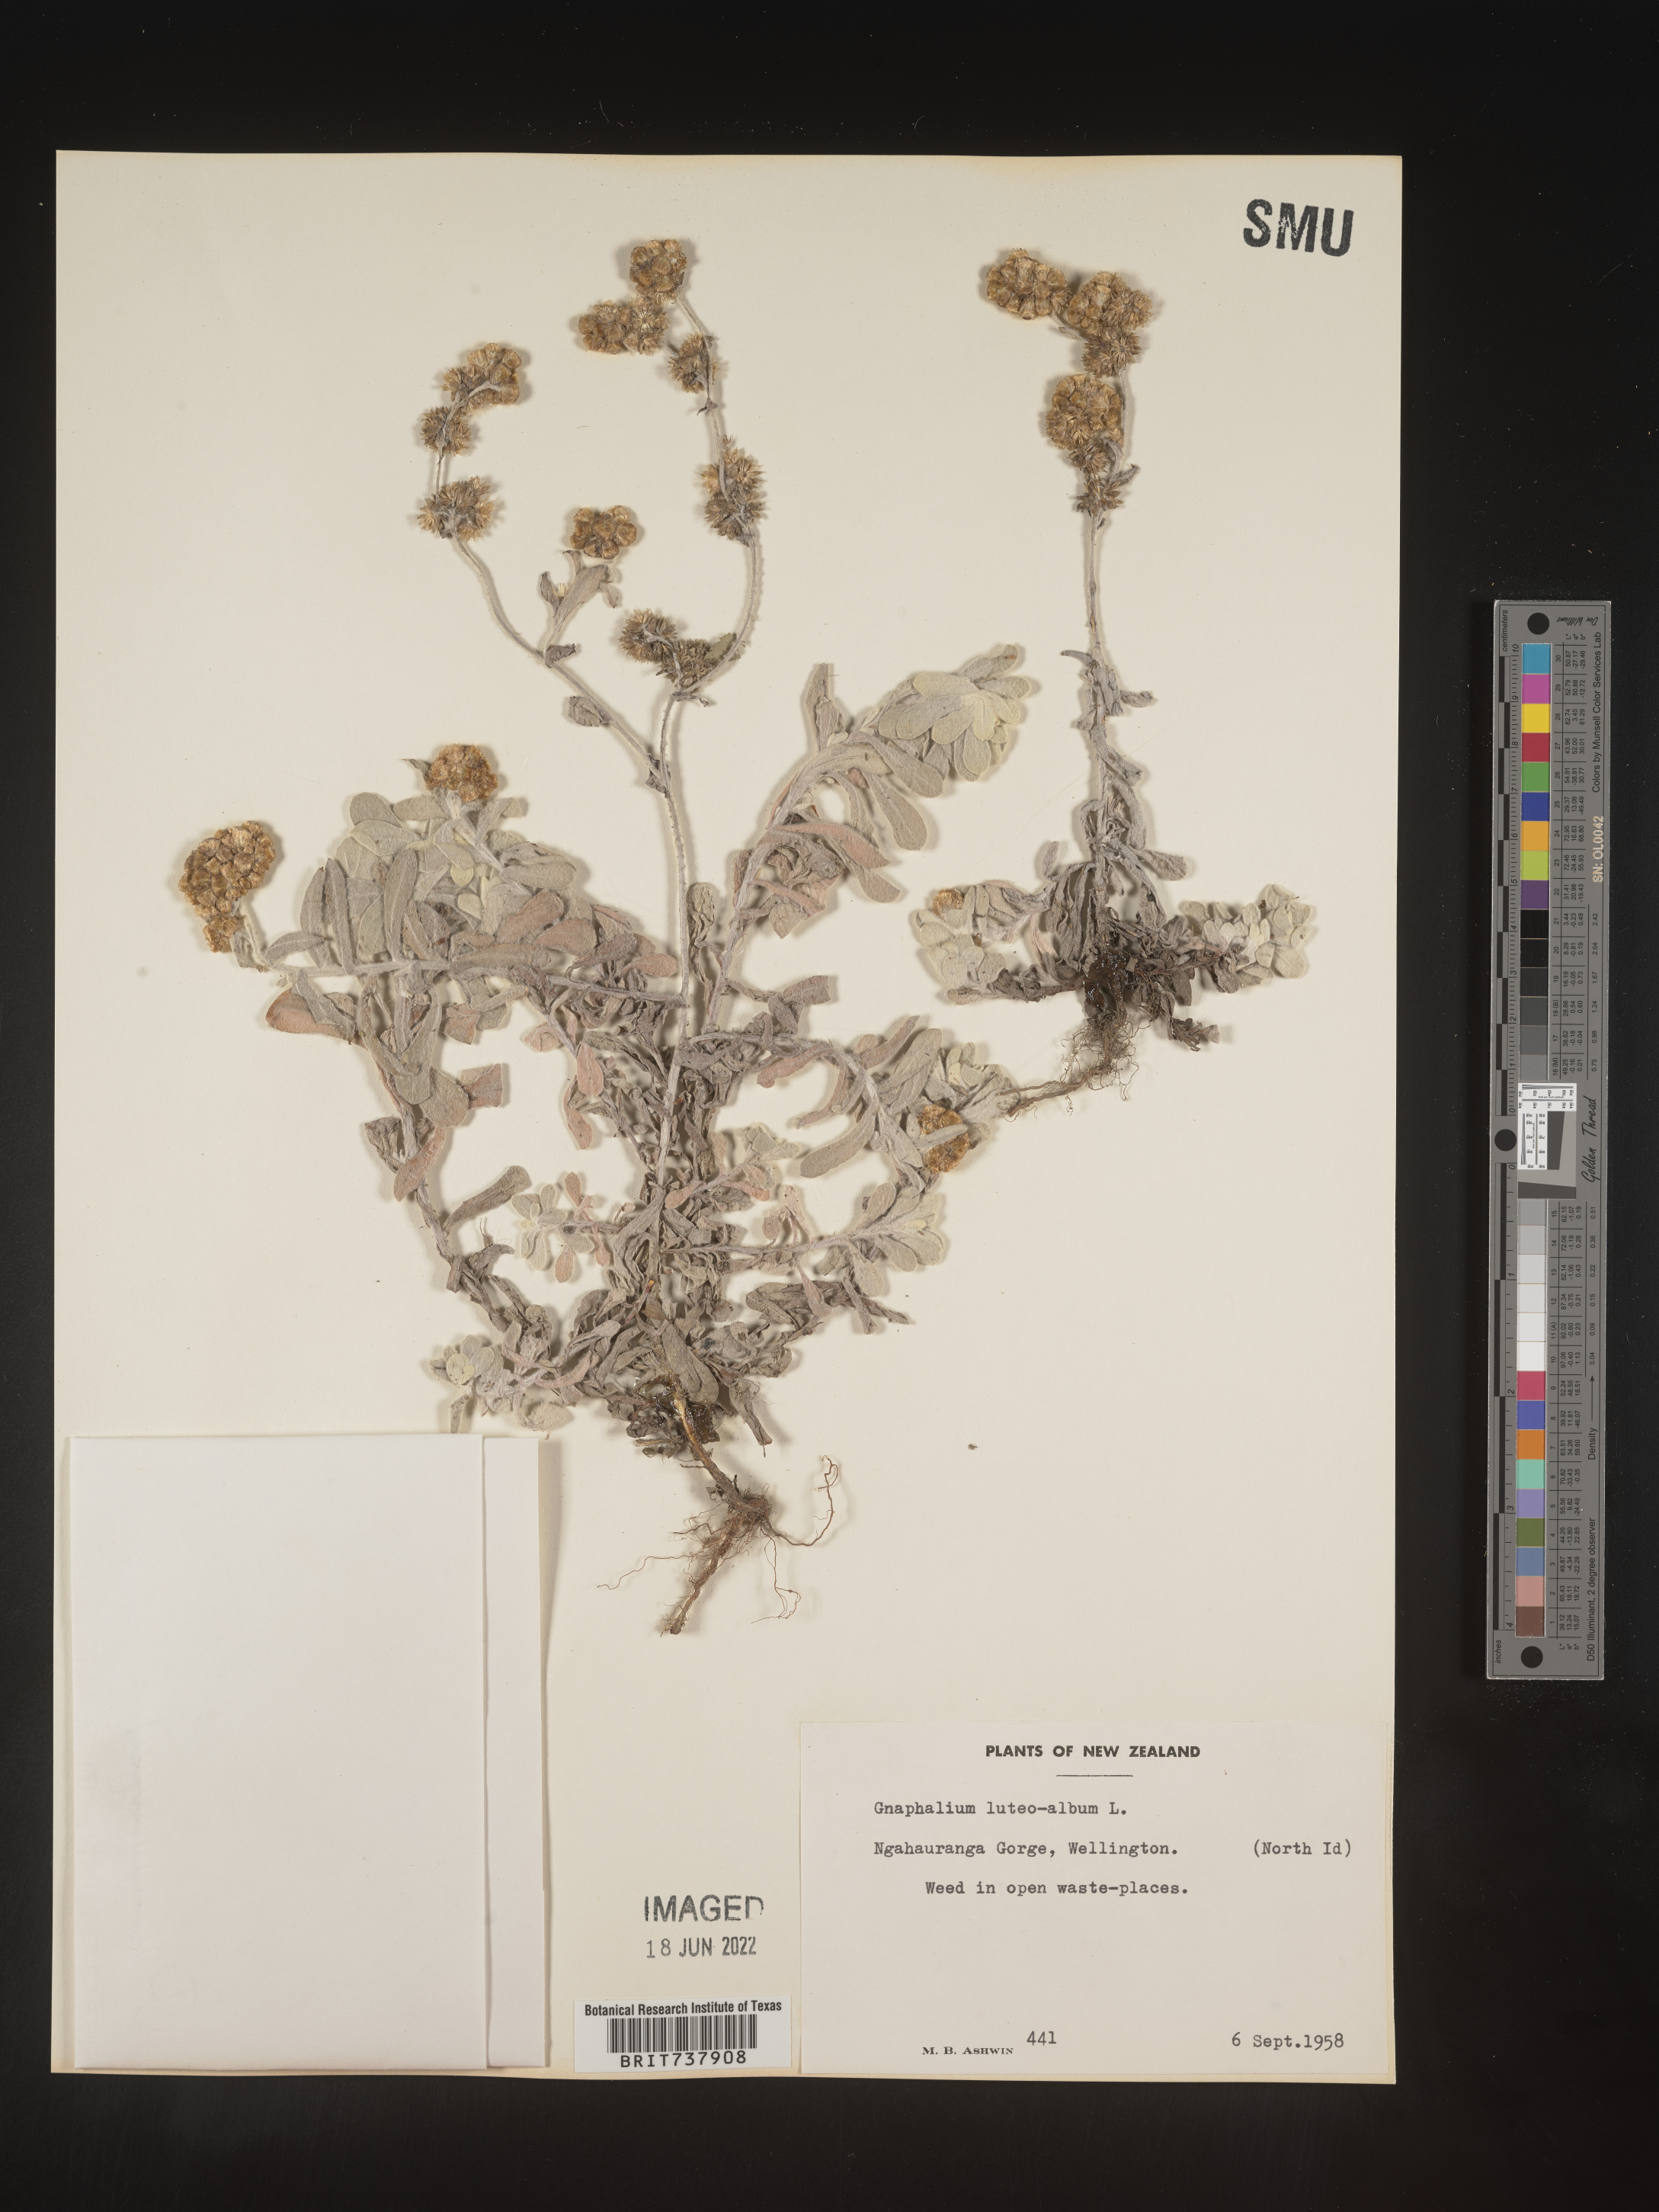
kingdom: Plantae
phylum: Tracheophyta
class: Magnoliopsida
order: Asterales
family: Asteraceae
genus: Pseudognaphalium
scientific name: Pseudognaphalium
